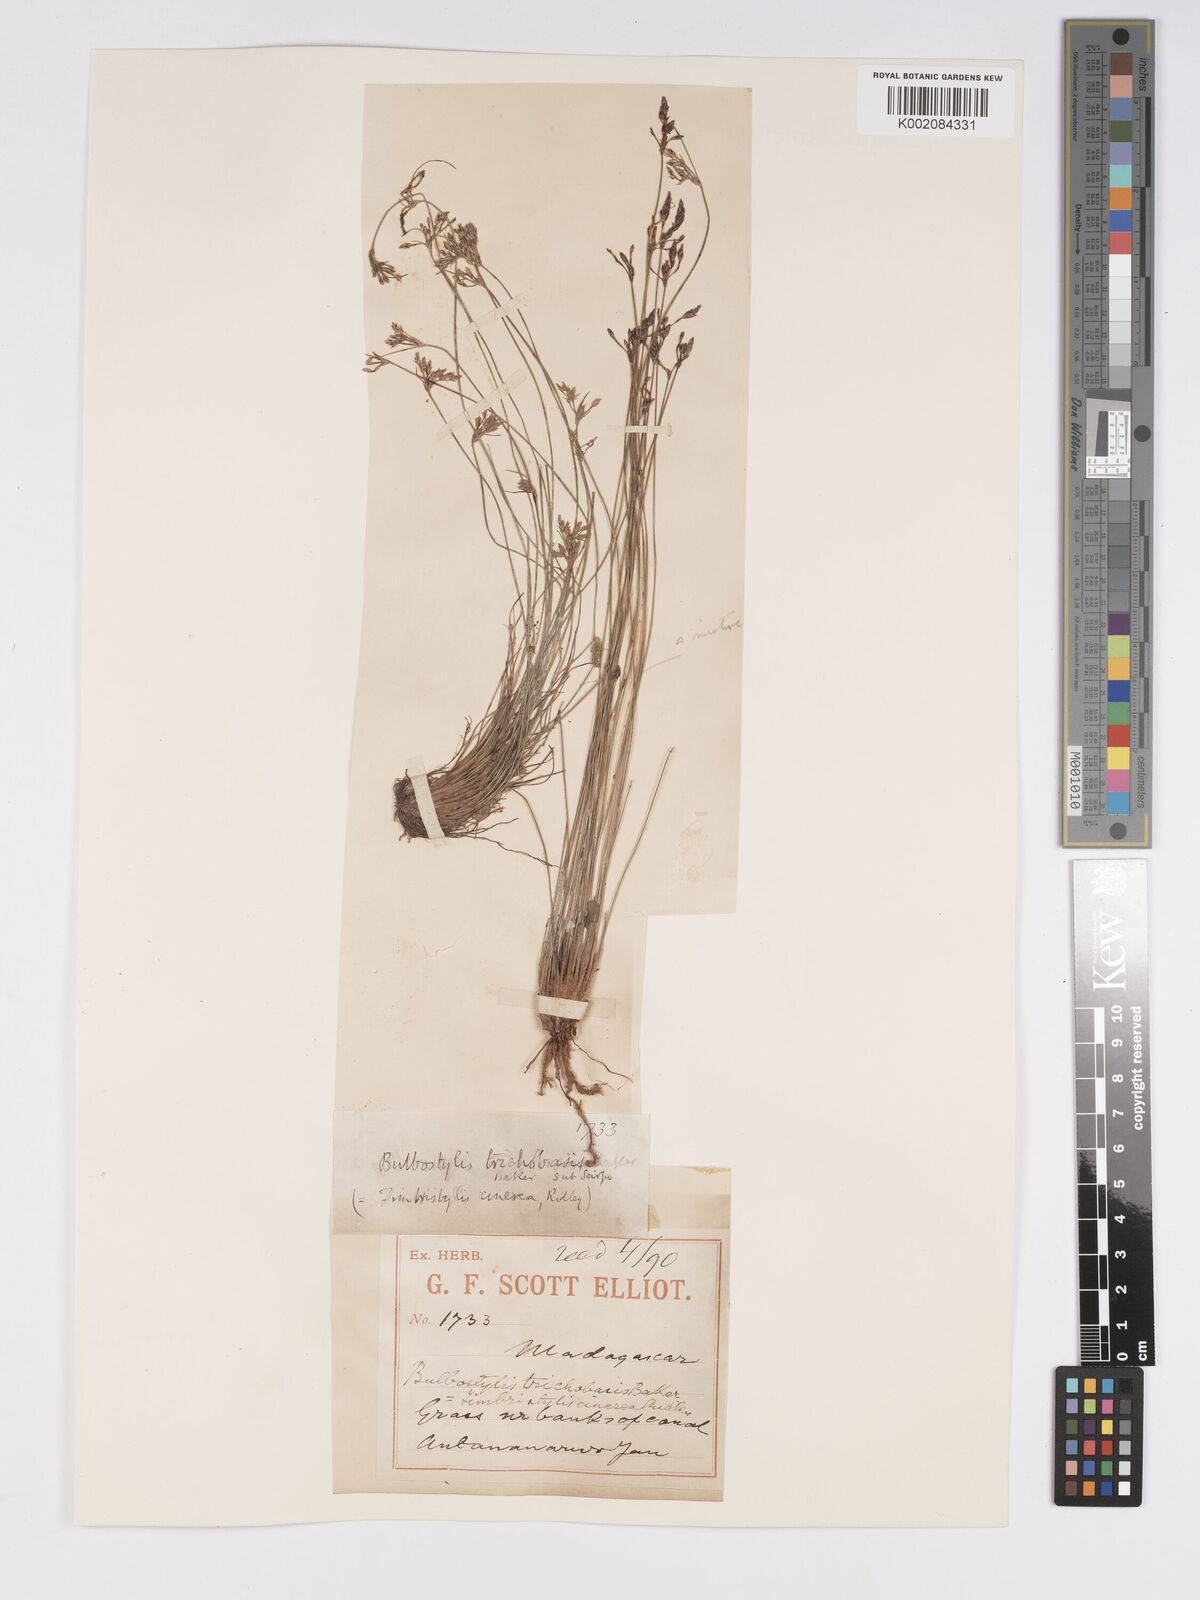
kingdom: Plantae
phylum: Tracheophyta
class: Liliopsida
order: Poales
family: Cyperaceae
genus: Bulbostylis
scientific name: Bulbostylis trichobasis
